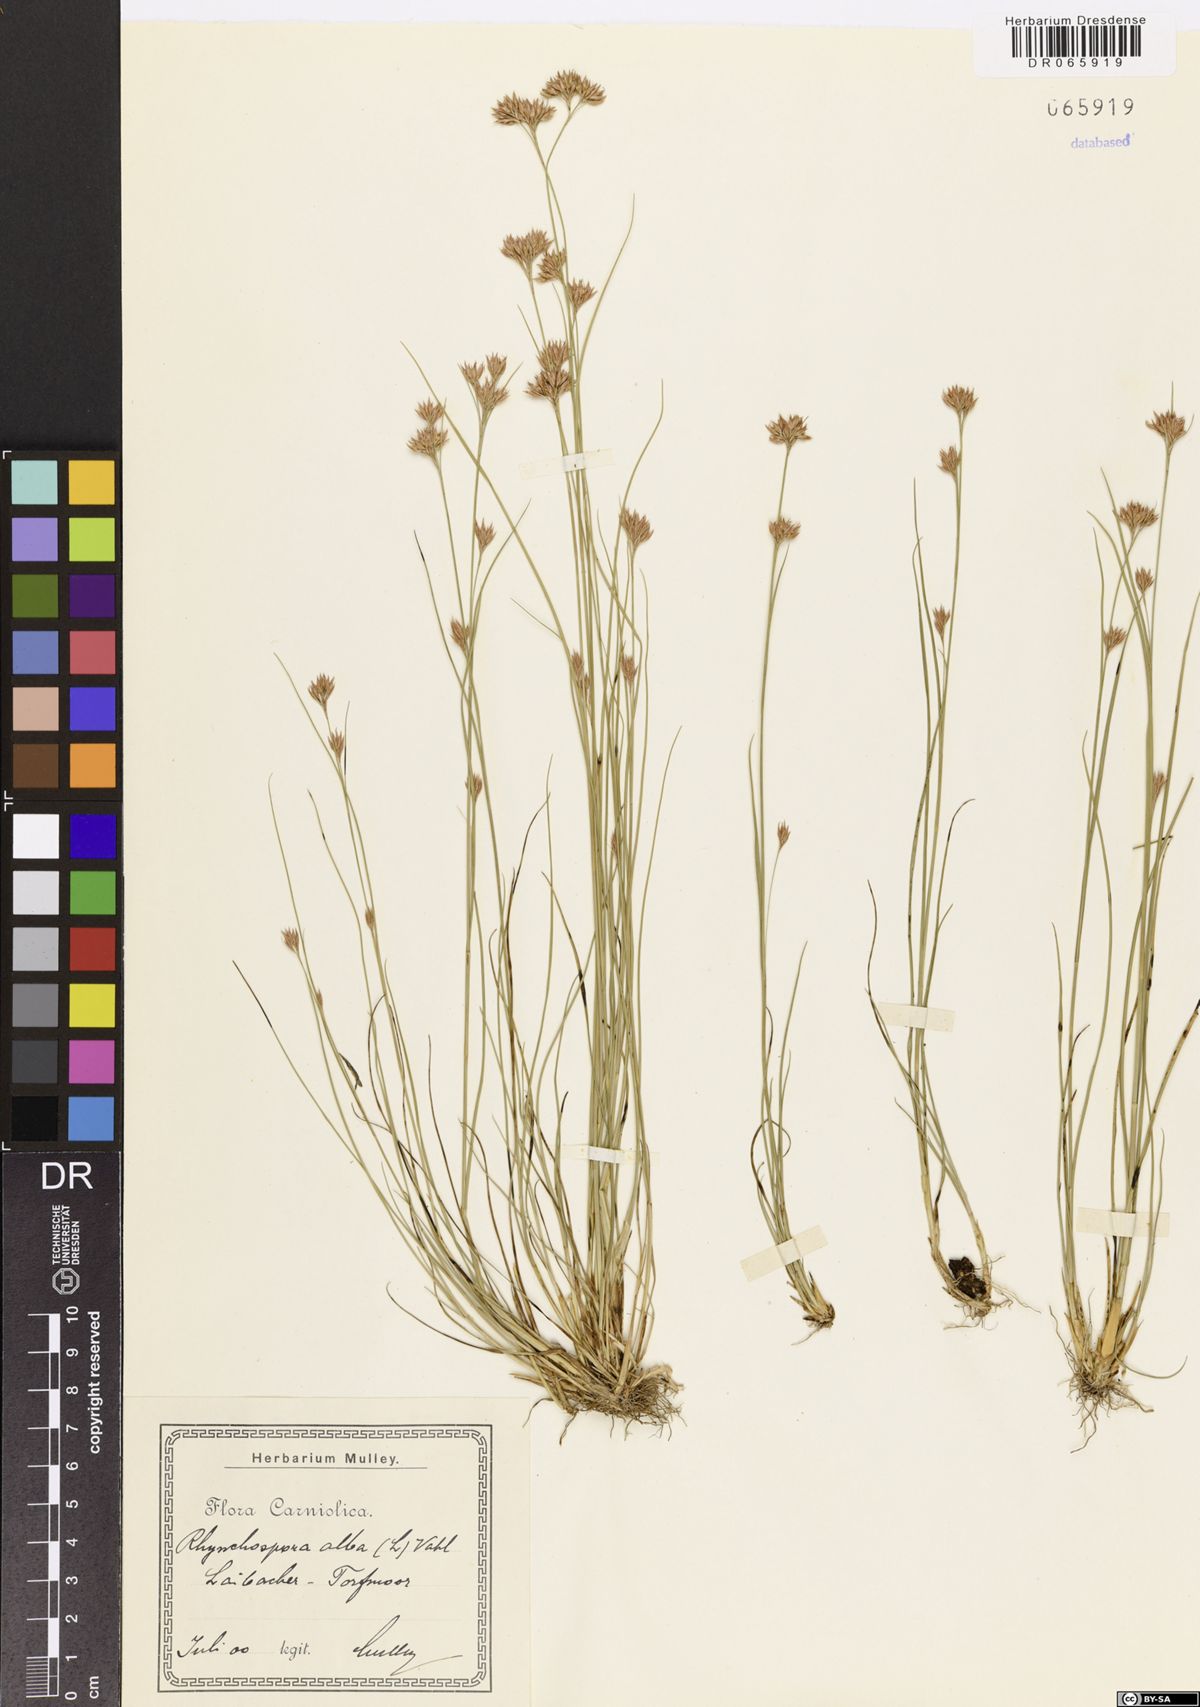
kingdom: Plantae
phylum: Tracheophyta
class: Liliopsida
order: Poales
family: Cyperaceae
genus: Rhynchospora
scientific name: Rhynchospora alba
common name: White beak-sedge
